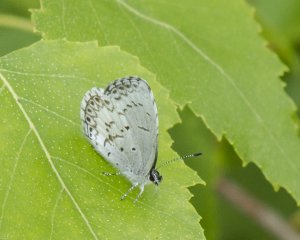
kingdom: Animalia
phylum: Arthropoda
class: Insecta
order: Lepidoptera
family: Lycaenidae
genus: Cyaniris
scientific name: Cyaniris neglecta
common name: Summer Azure
